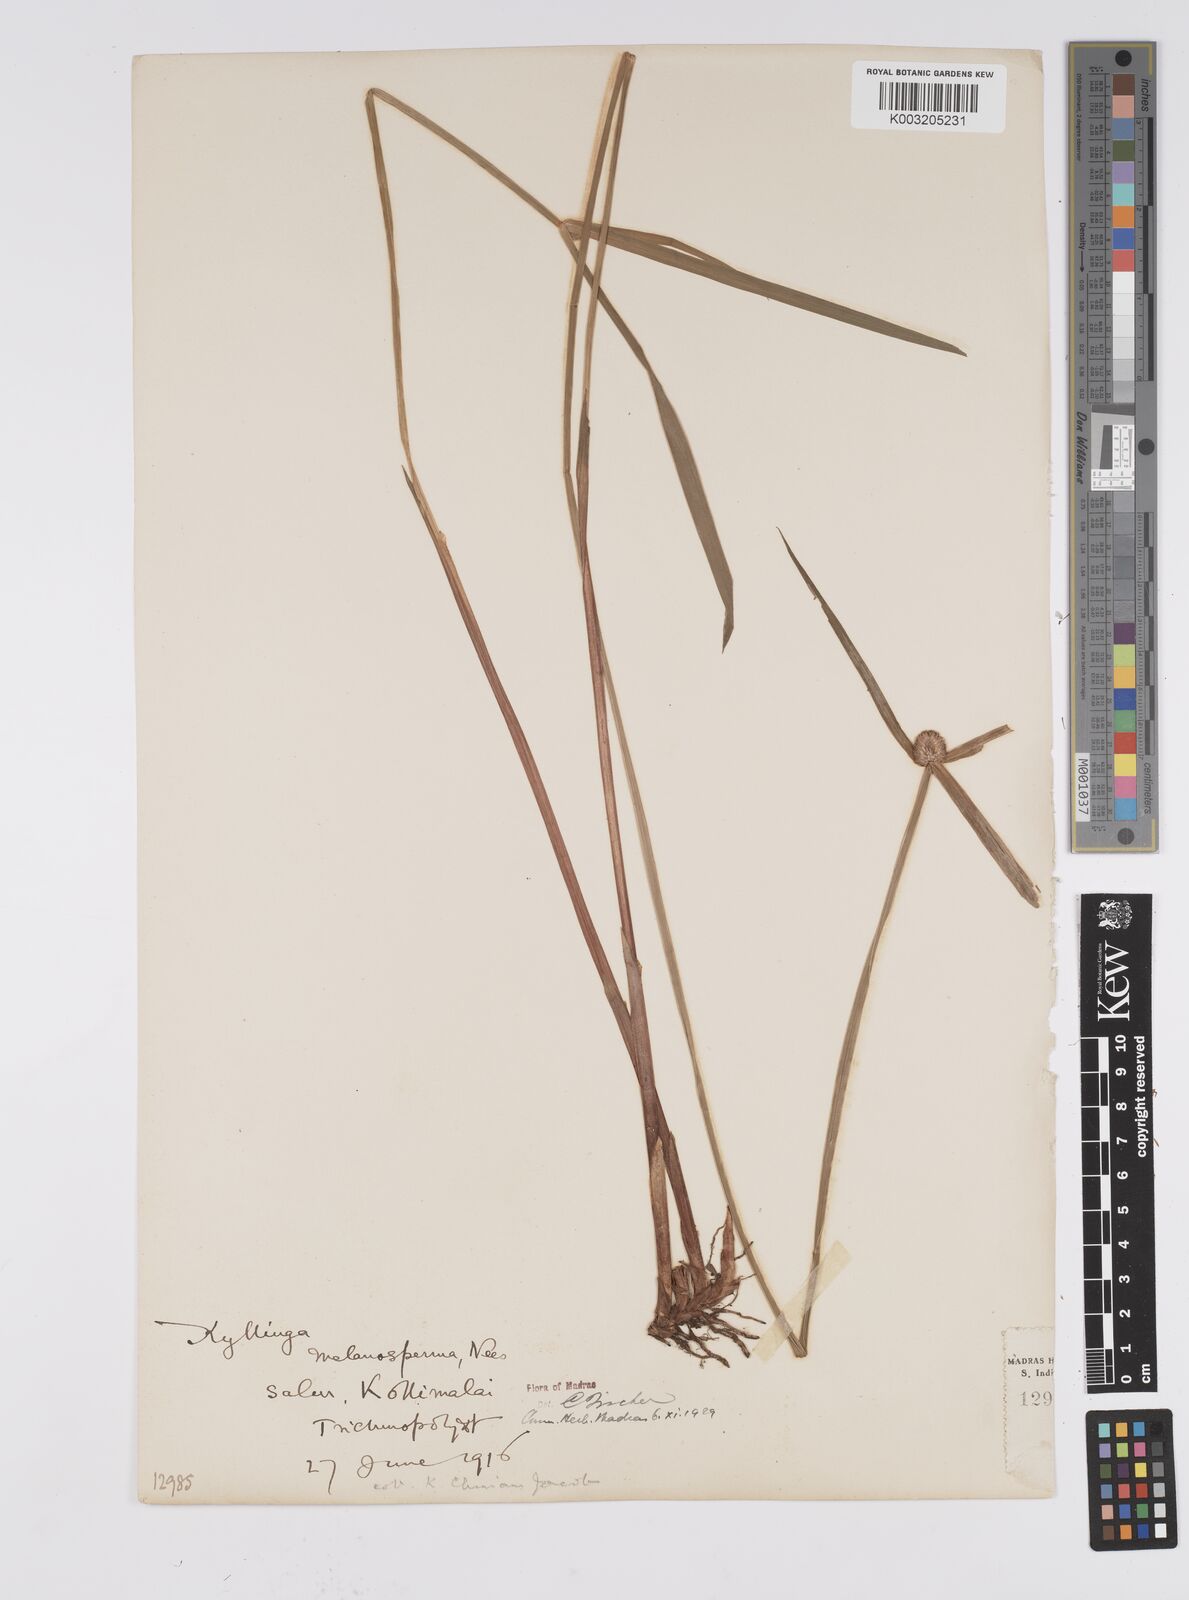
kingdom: Plantae
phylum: Tracheophyta
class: Liliopsida
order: Poales
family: Cyperaceae
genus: Cyperus
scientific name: Cyperus melanospermus
